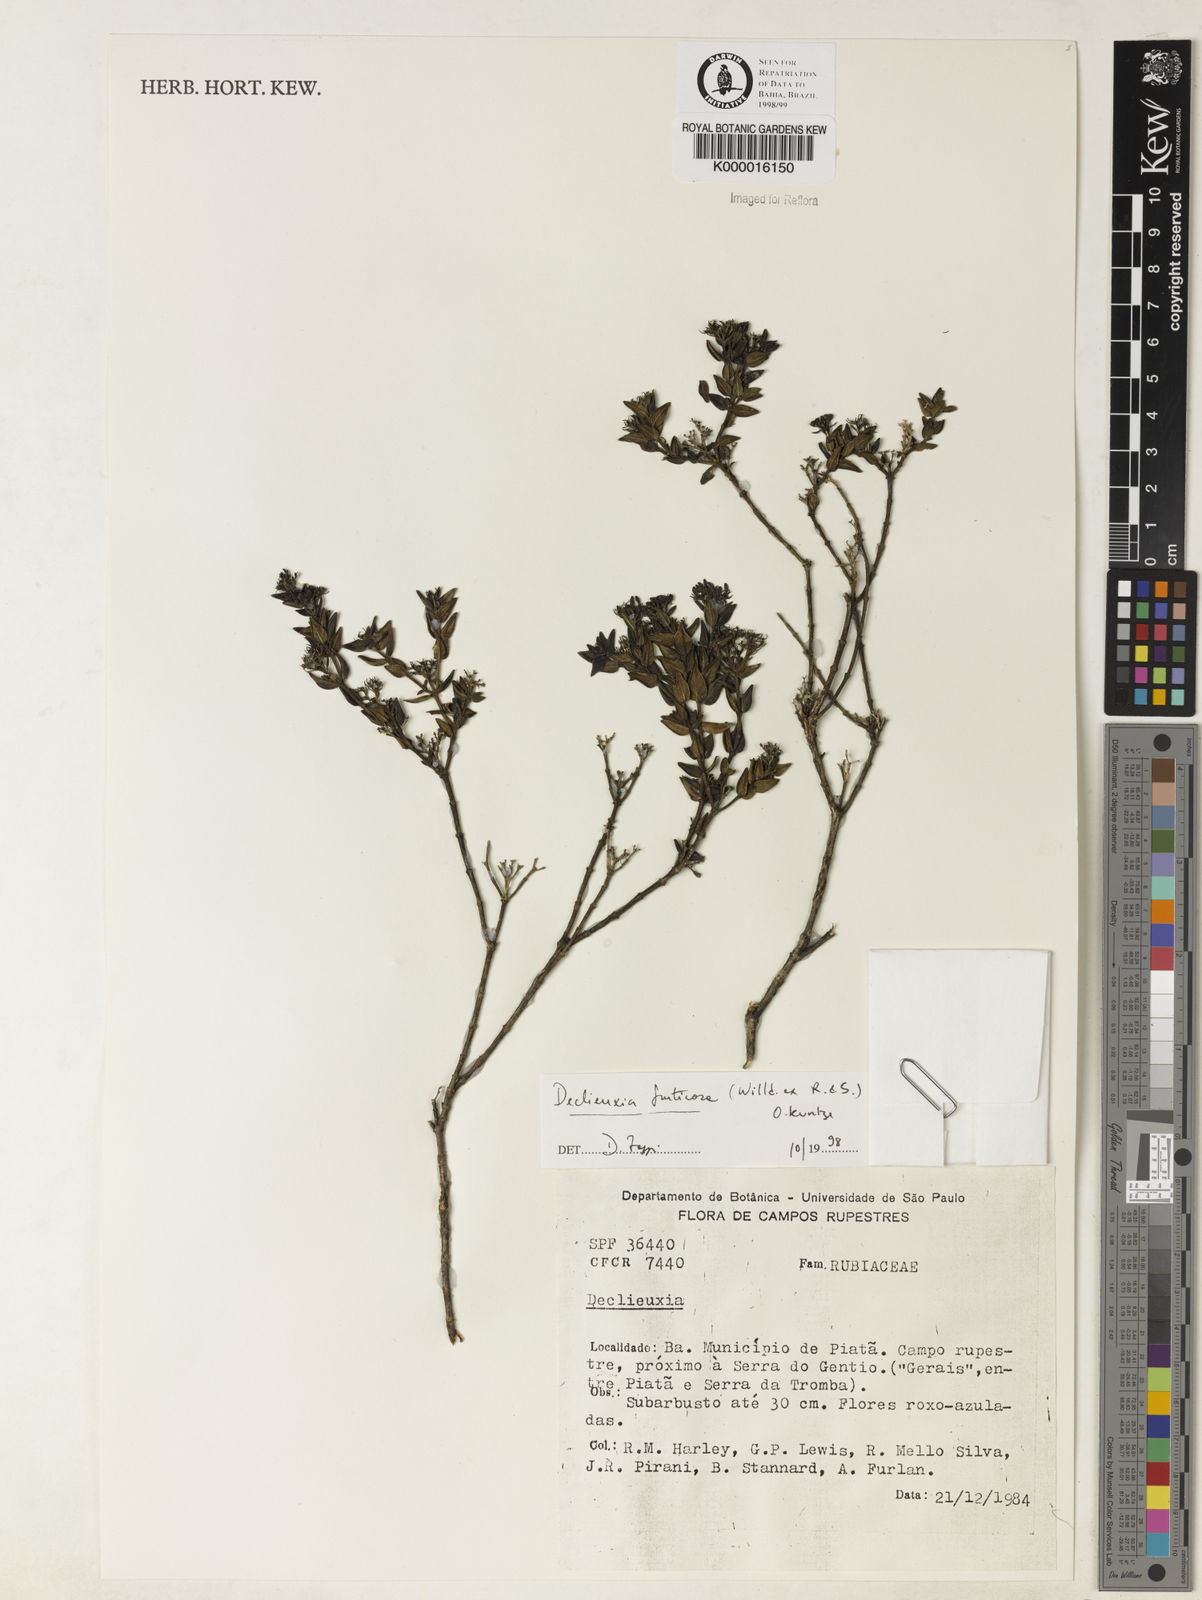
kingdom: Plantae
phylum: Tracheophyta
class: Magnoliopsida
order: Gentianales
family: Rubiaceae
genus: Declieuxia
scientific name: Declieuxia fruticosa
